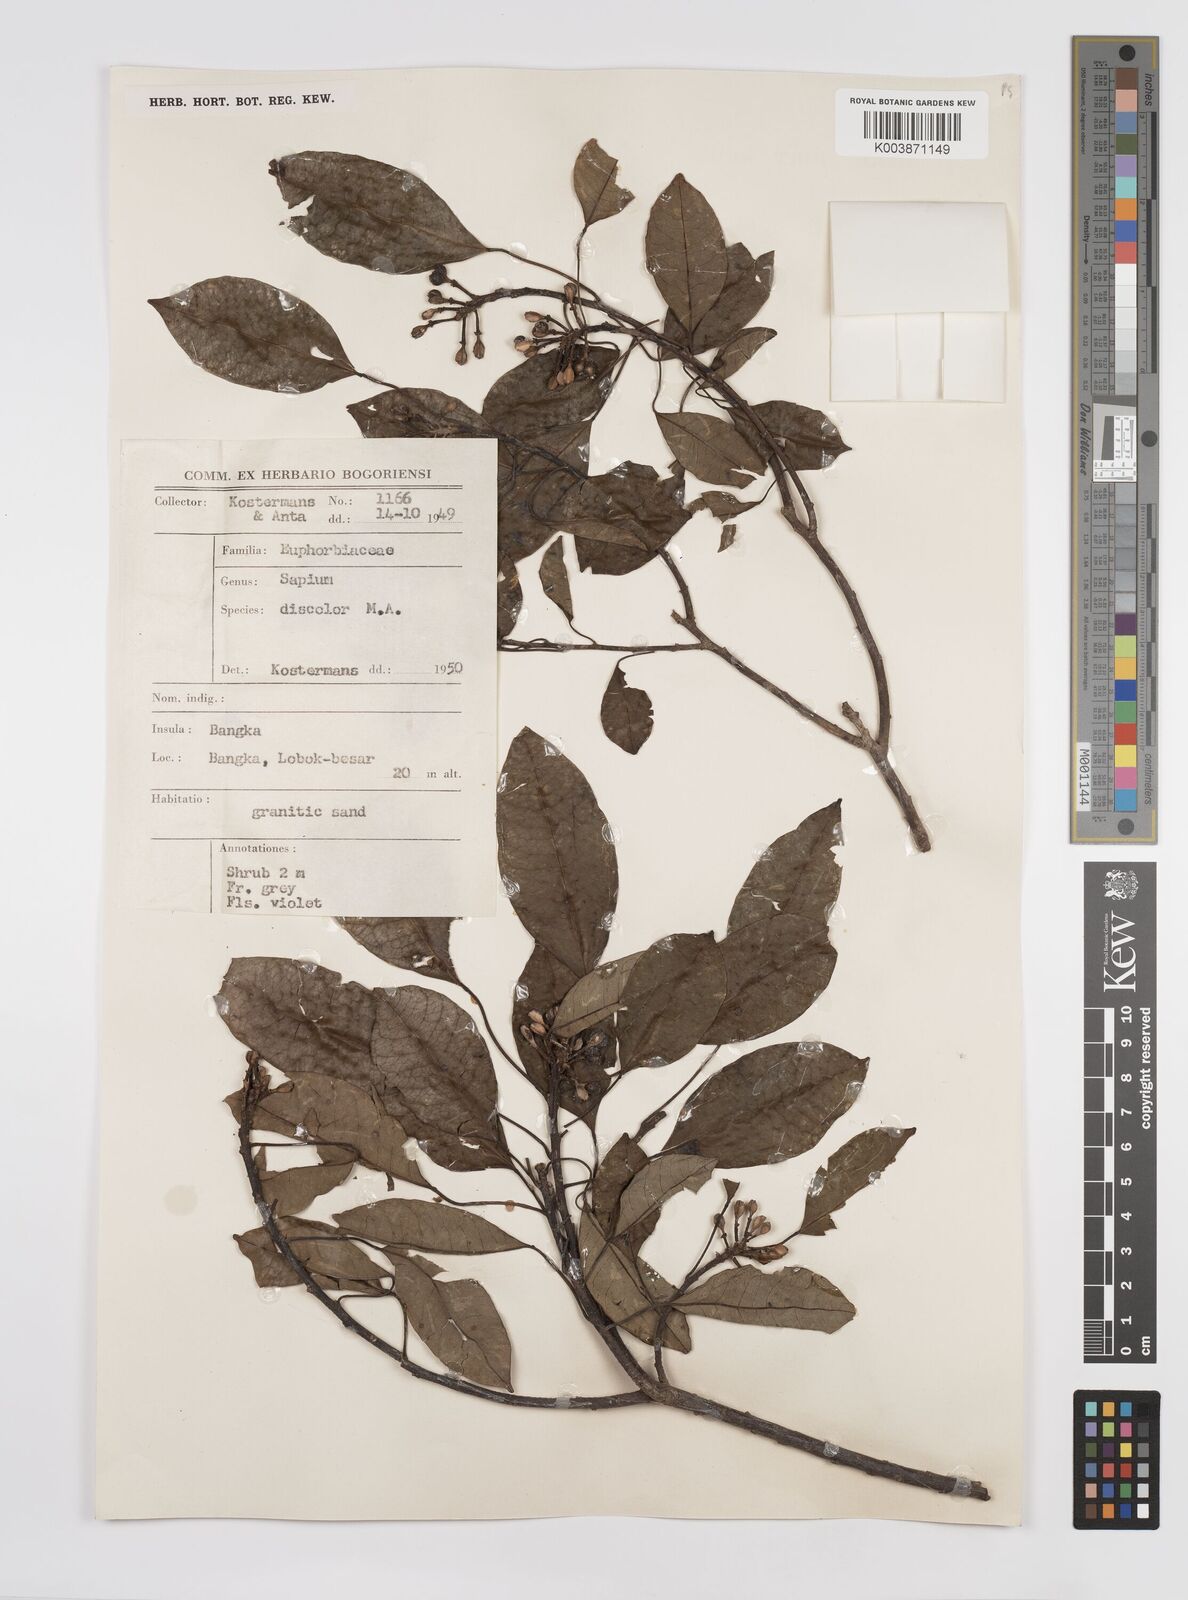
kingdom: Plantae
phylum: Tracheophyta
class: Magnoliopsida
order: Malpighiales
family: Euphorbiaceae
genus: Triadica
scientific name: Triadica cochinchinensis
